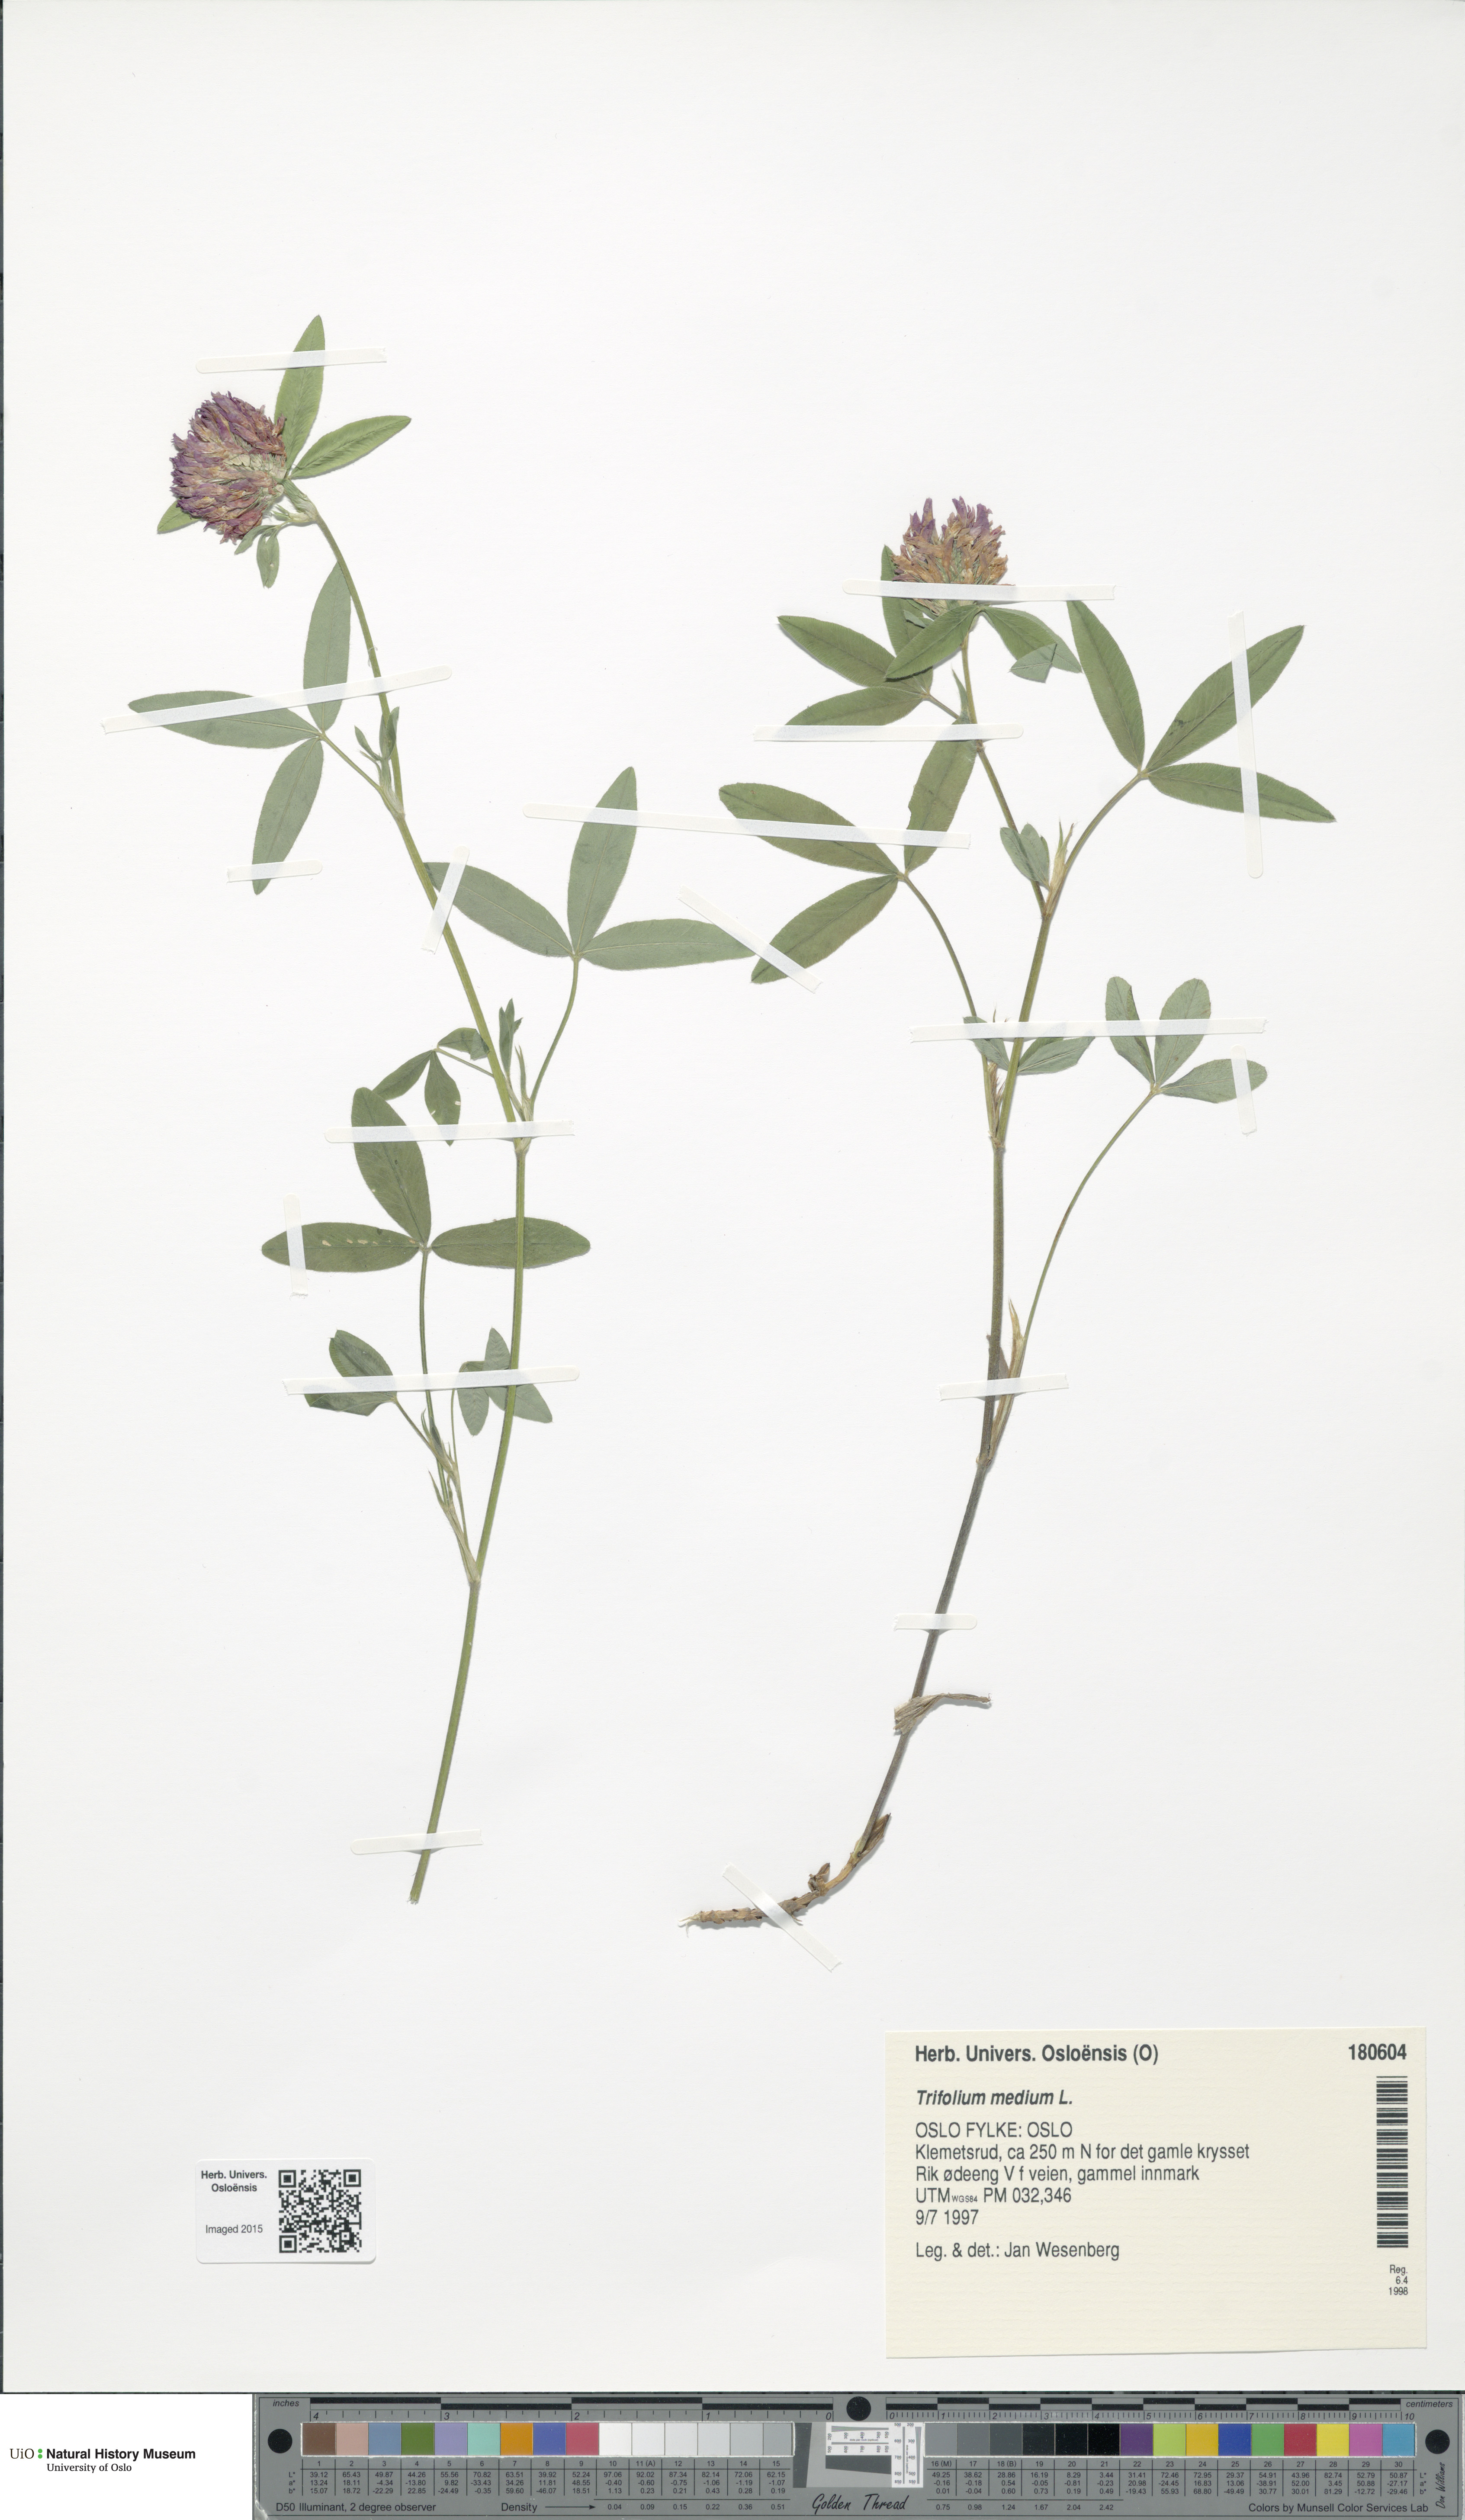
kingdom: Plantae
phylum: Tracheophyta
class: Magnoliopsida
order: Fabales
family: Fabaceae
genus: Trifolium
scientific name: Trifolium medium
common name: Zigzag clover
